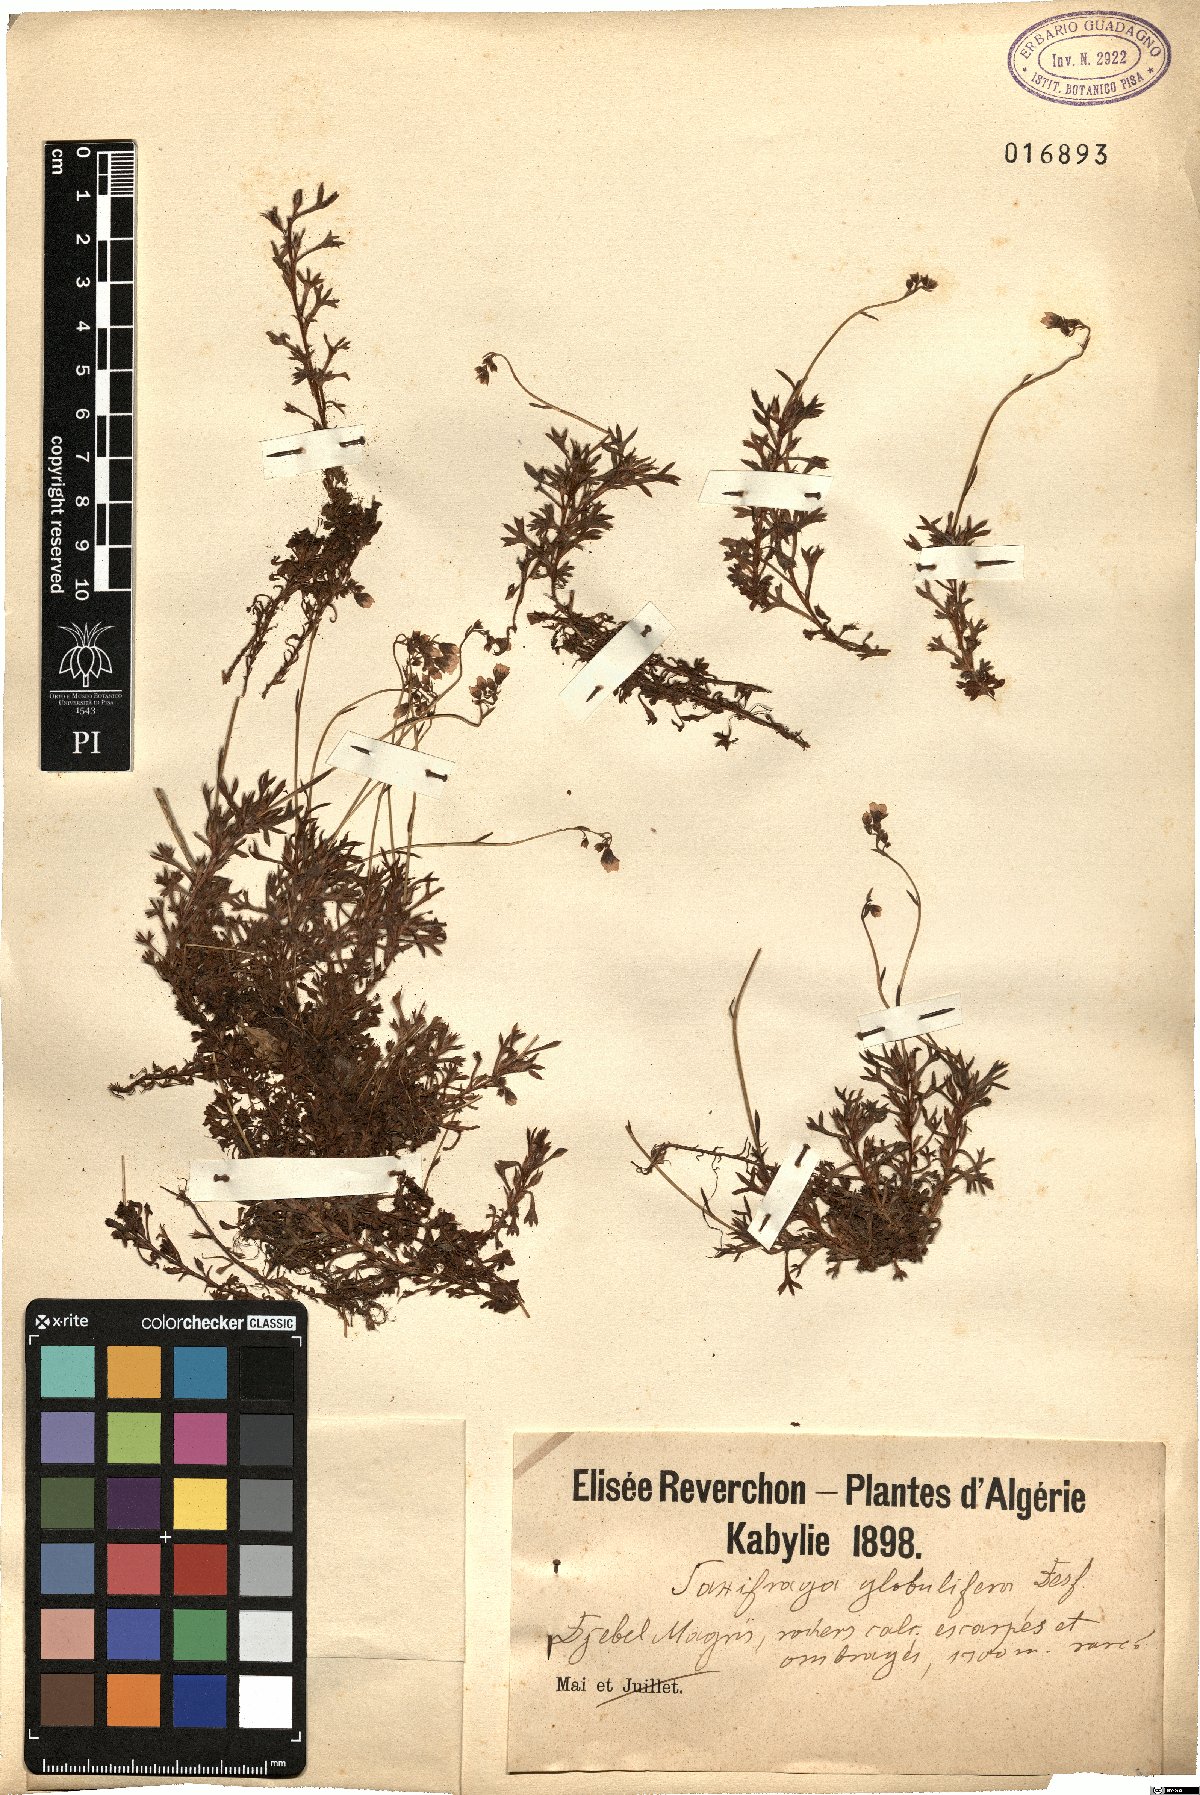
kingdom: Plantae
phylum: Tracheophyta
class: Magnoliopsida
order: Saxifragales
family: Saxifragaceae
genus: Saxifraga
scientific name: Saxifraga globulifera
